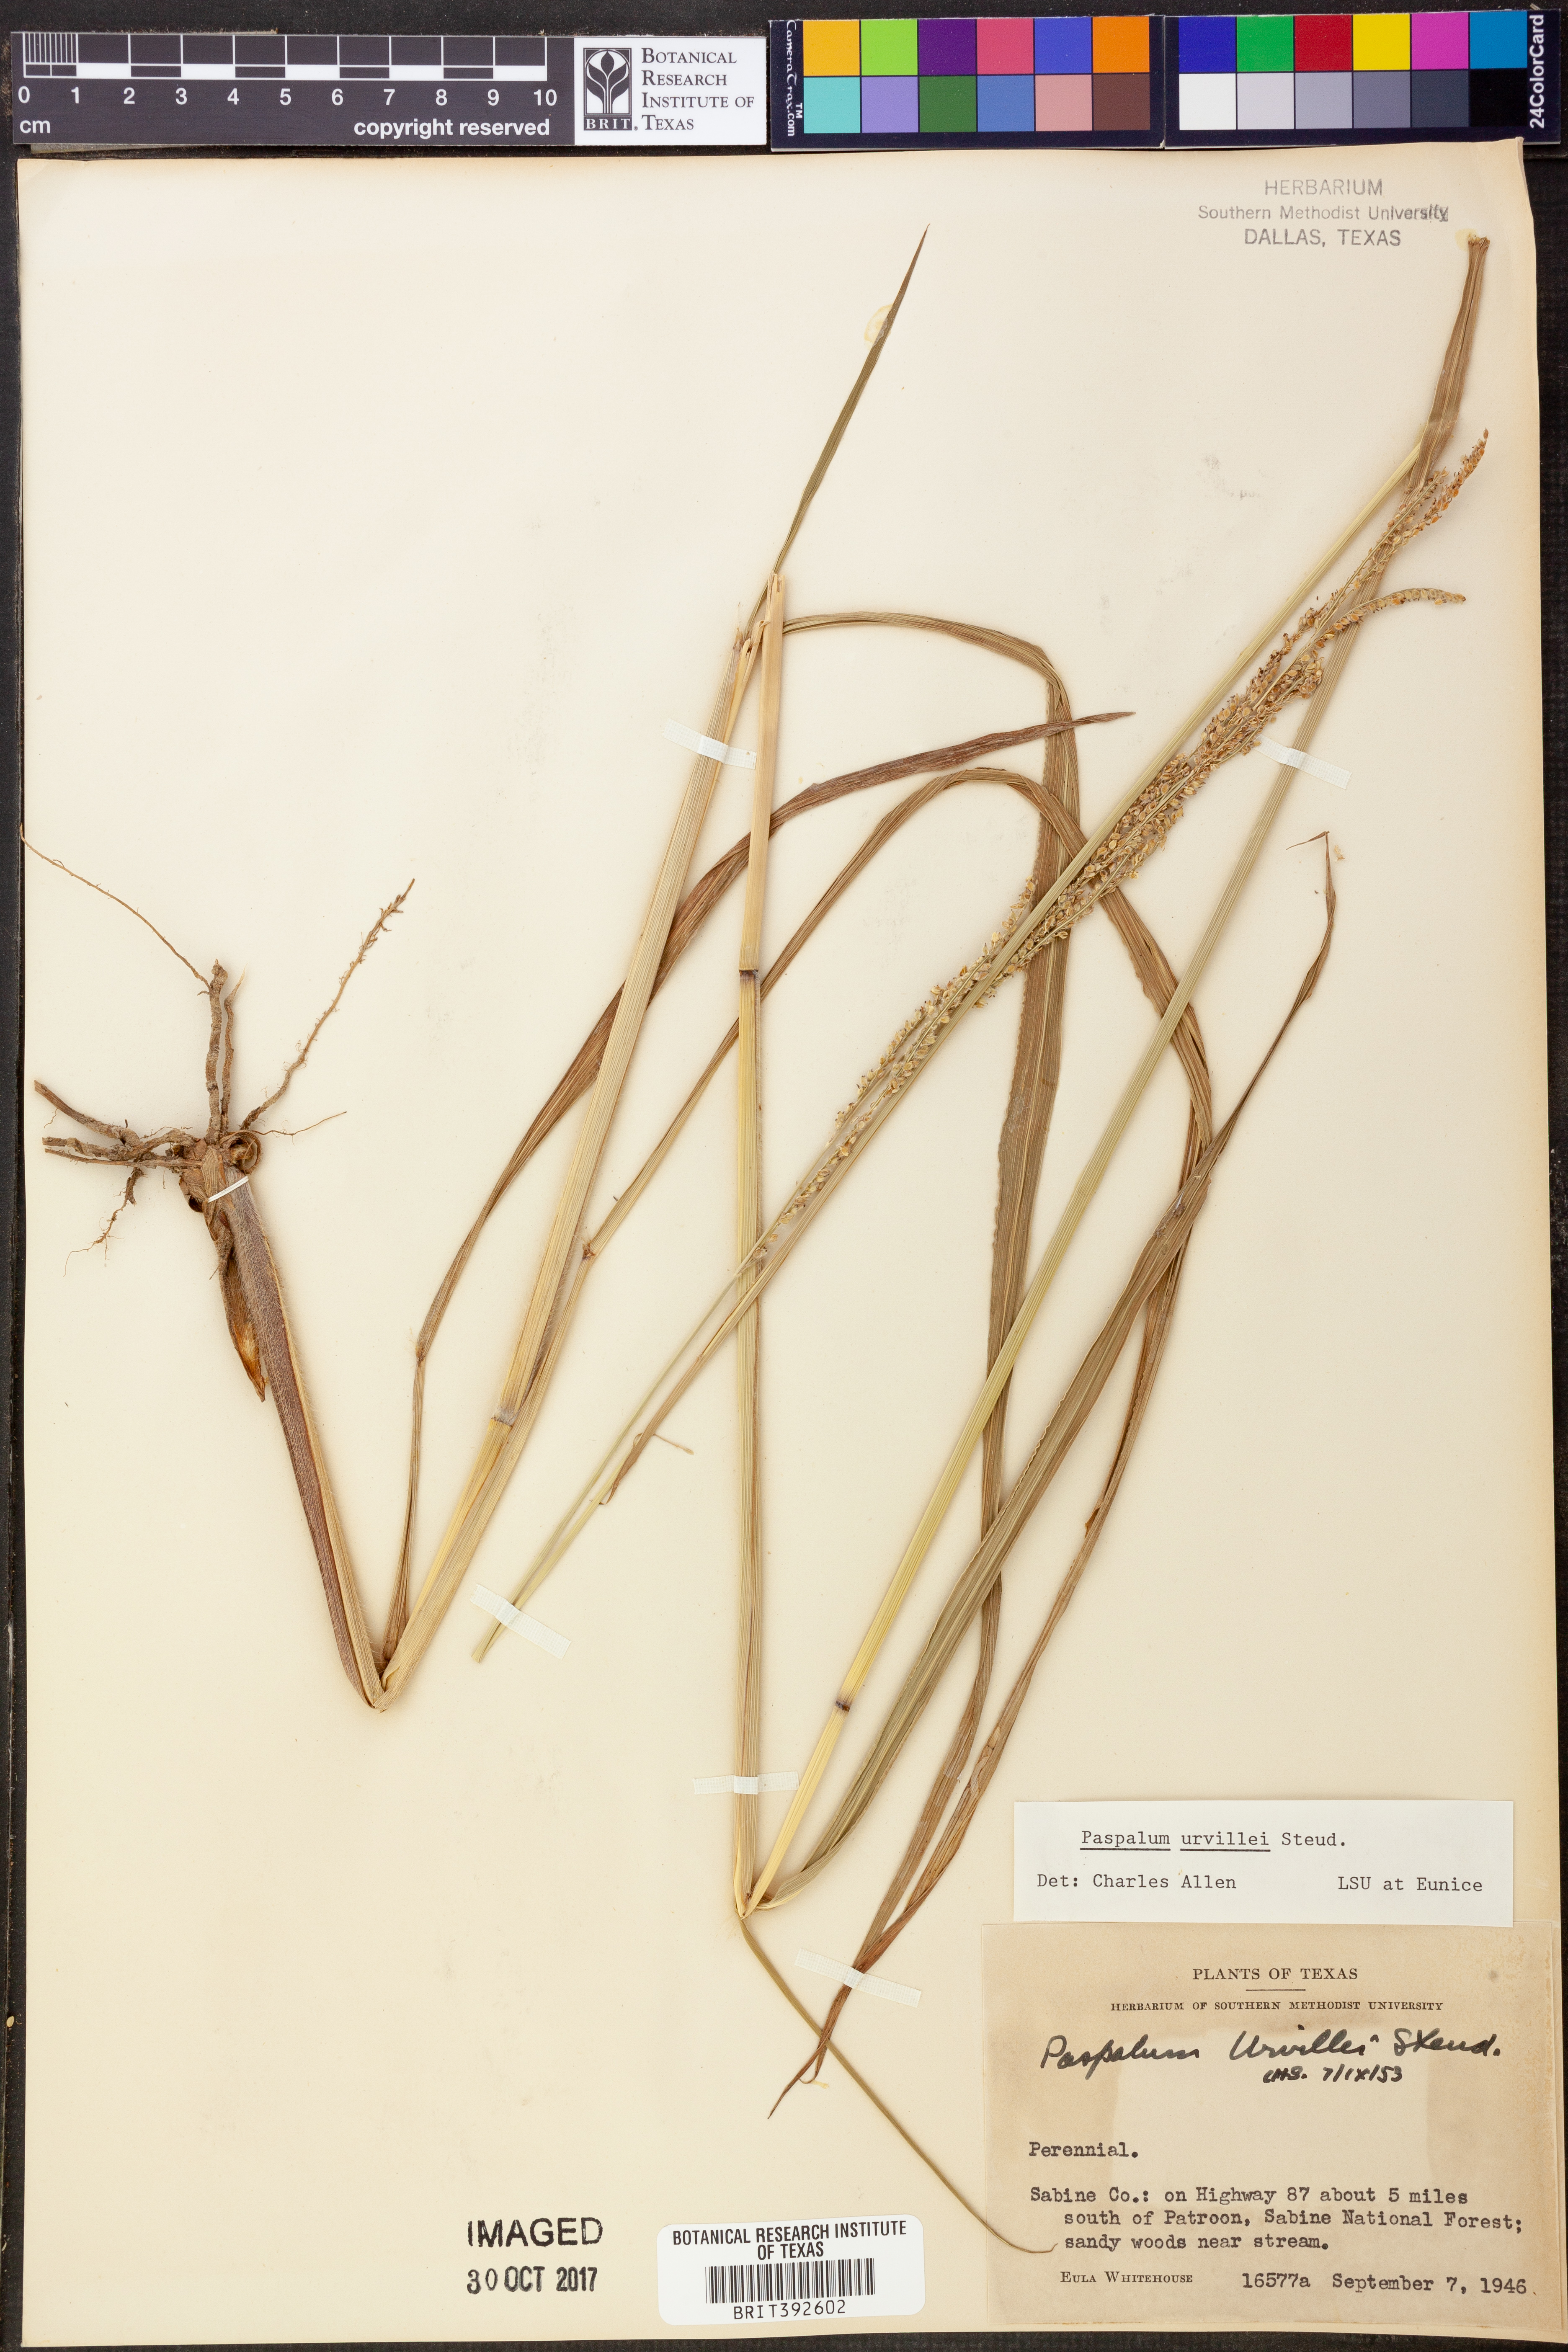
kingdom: Plantae
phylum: Tracheophyta
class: Liliopsida
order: Poales
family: Poaceae
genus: Paspalum
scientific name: Paspalum urvillei
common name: Vasey's grass
